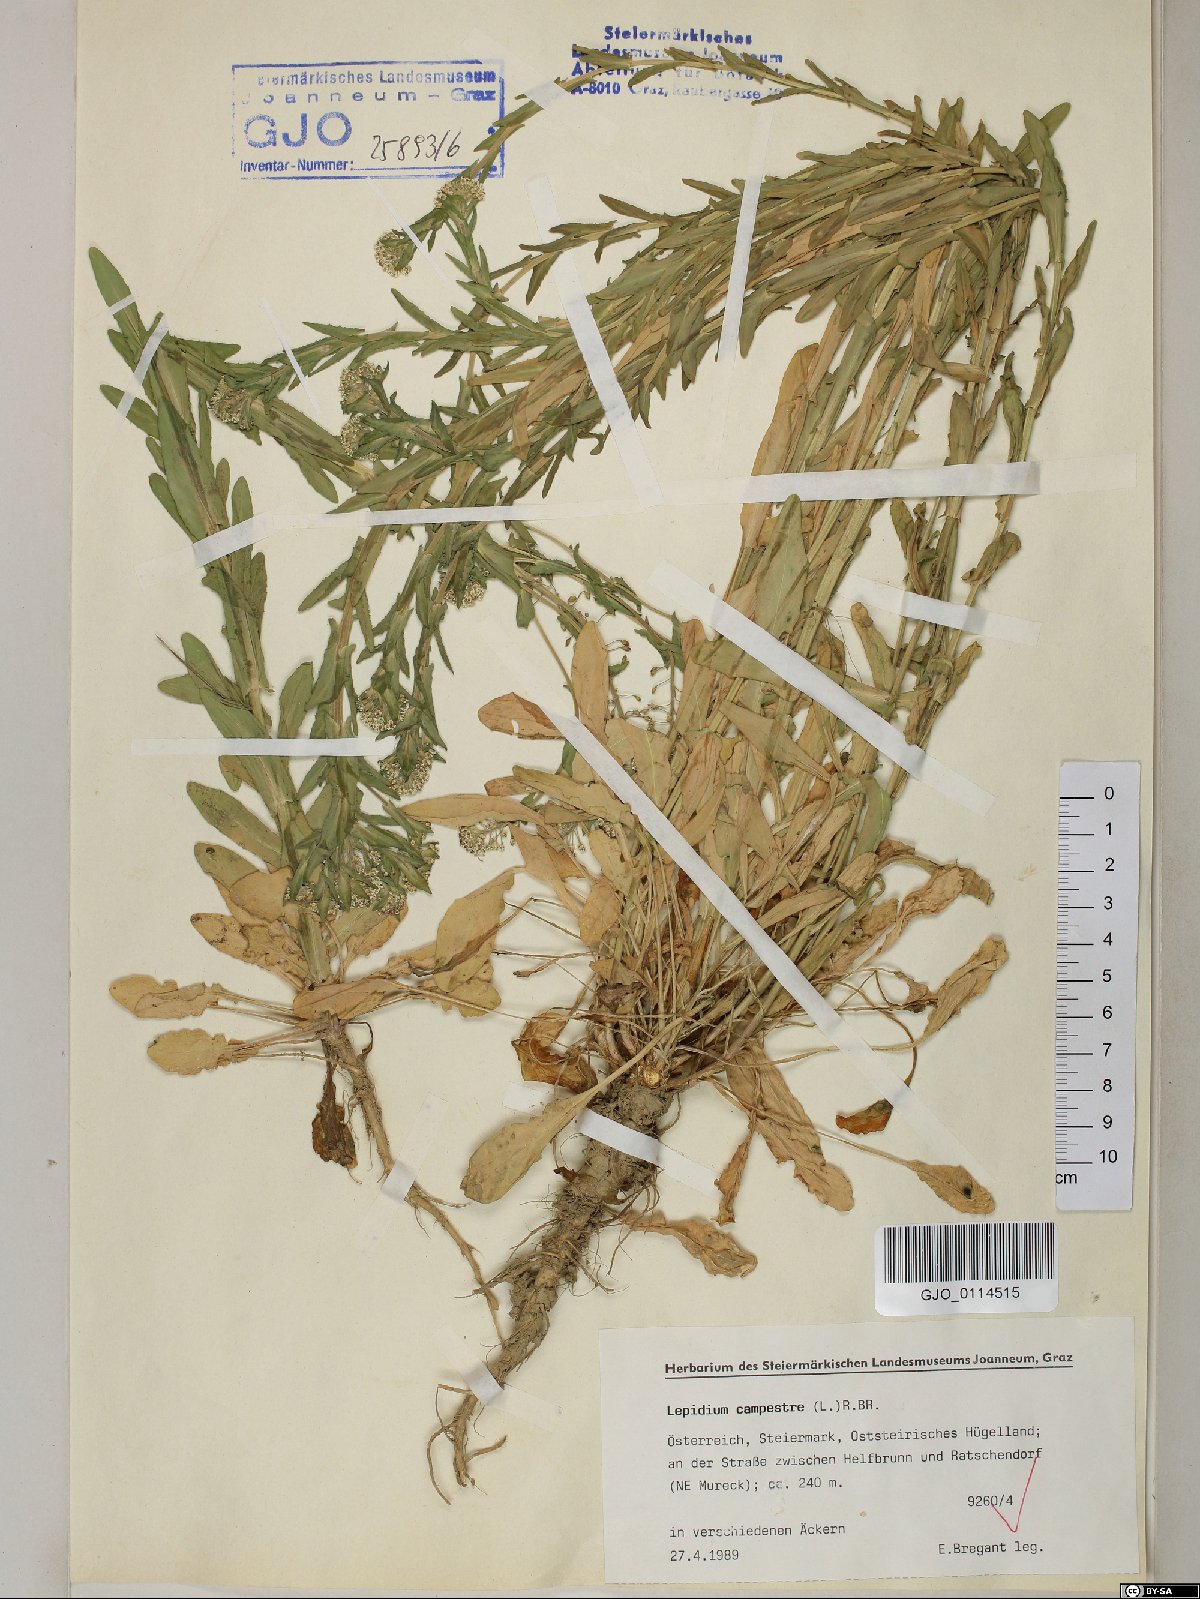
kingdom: Plantae
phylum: Tracheophyta
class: Magnoliopsida
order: Brassicales
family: Brassicaceae
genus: Lepidium
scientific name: Lepidium campestre
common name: Field pepperwort
